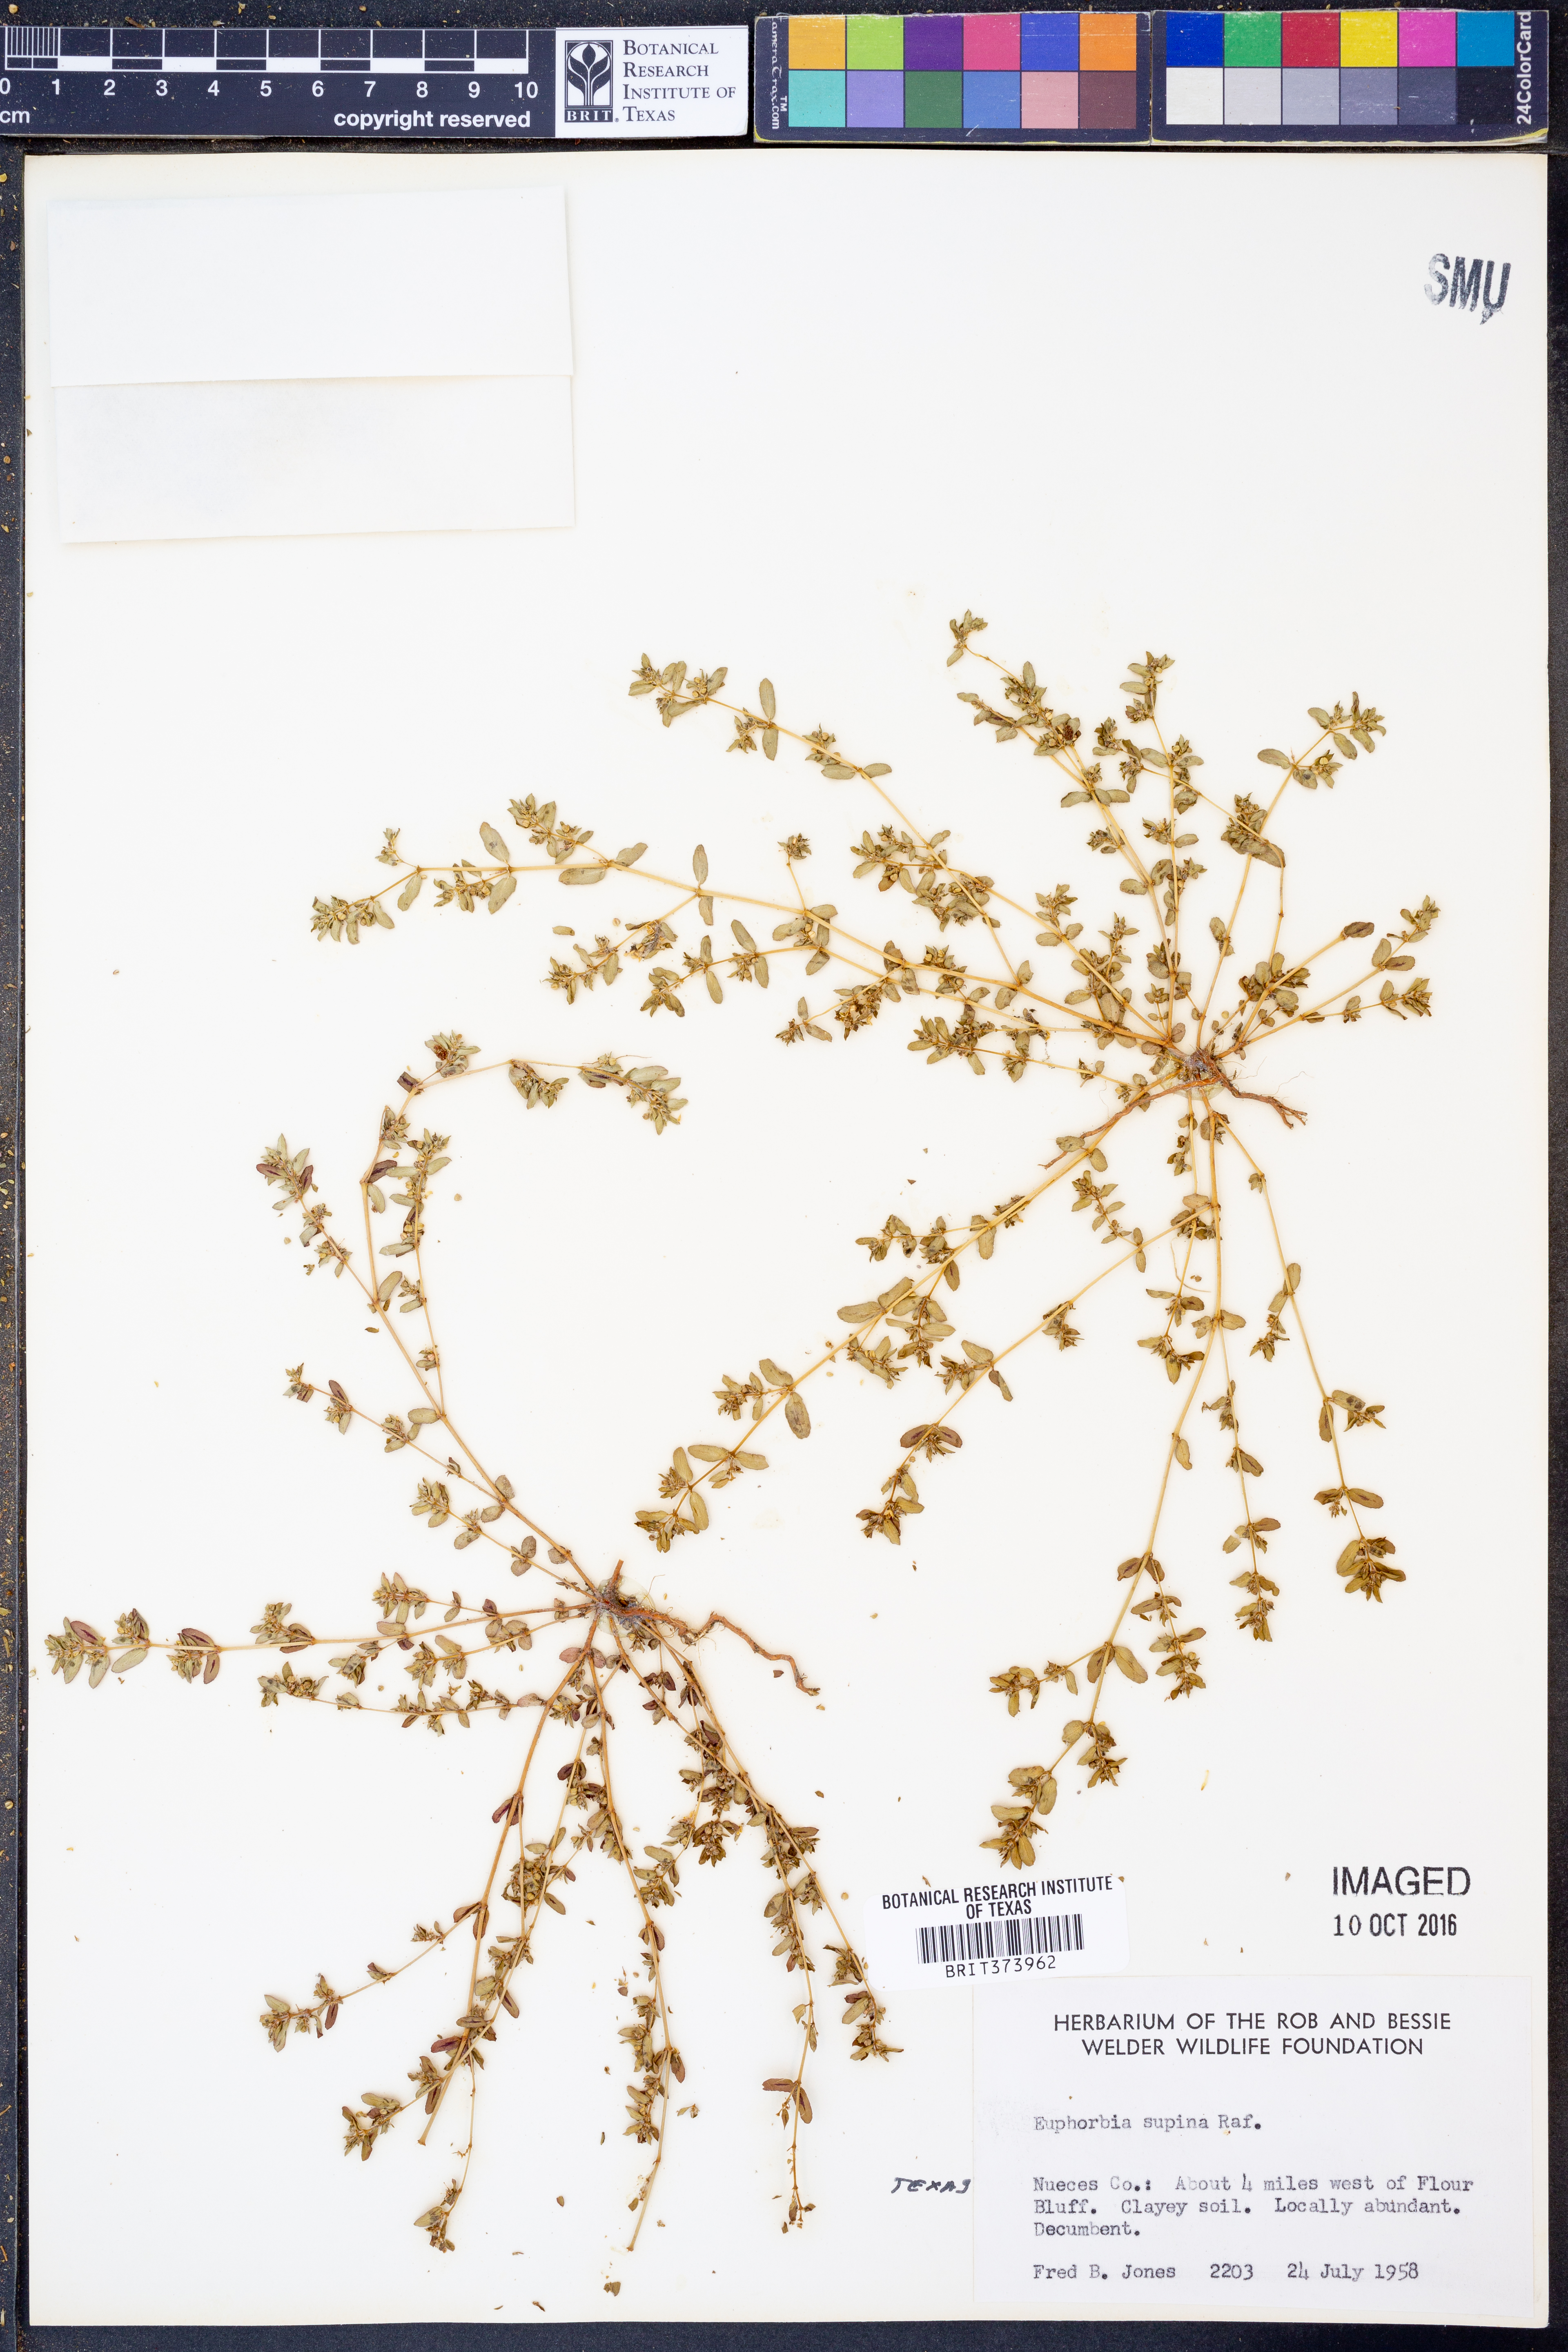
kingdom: Plantae
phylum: Tracheophyta
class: Magnoliopsida
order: Malpighiales
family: Euphorbiaceae
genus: Euphorbia
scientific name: Euphorbia maculata
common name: Spotted spurge
